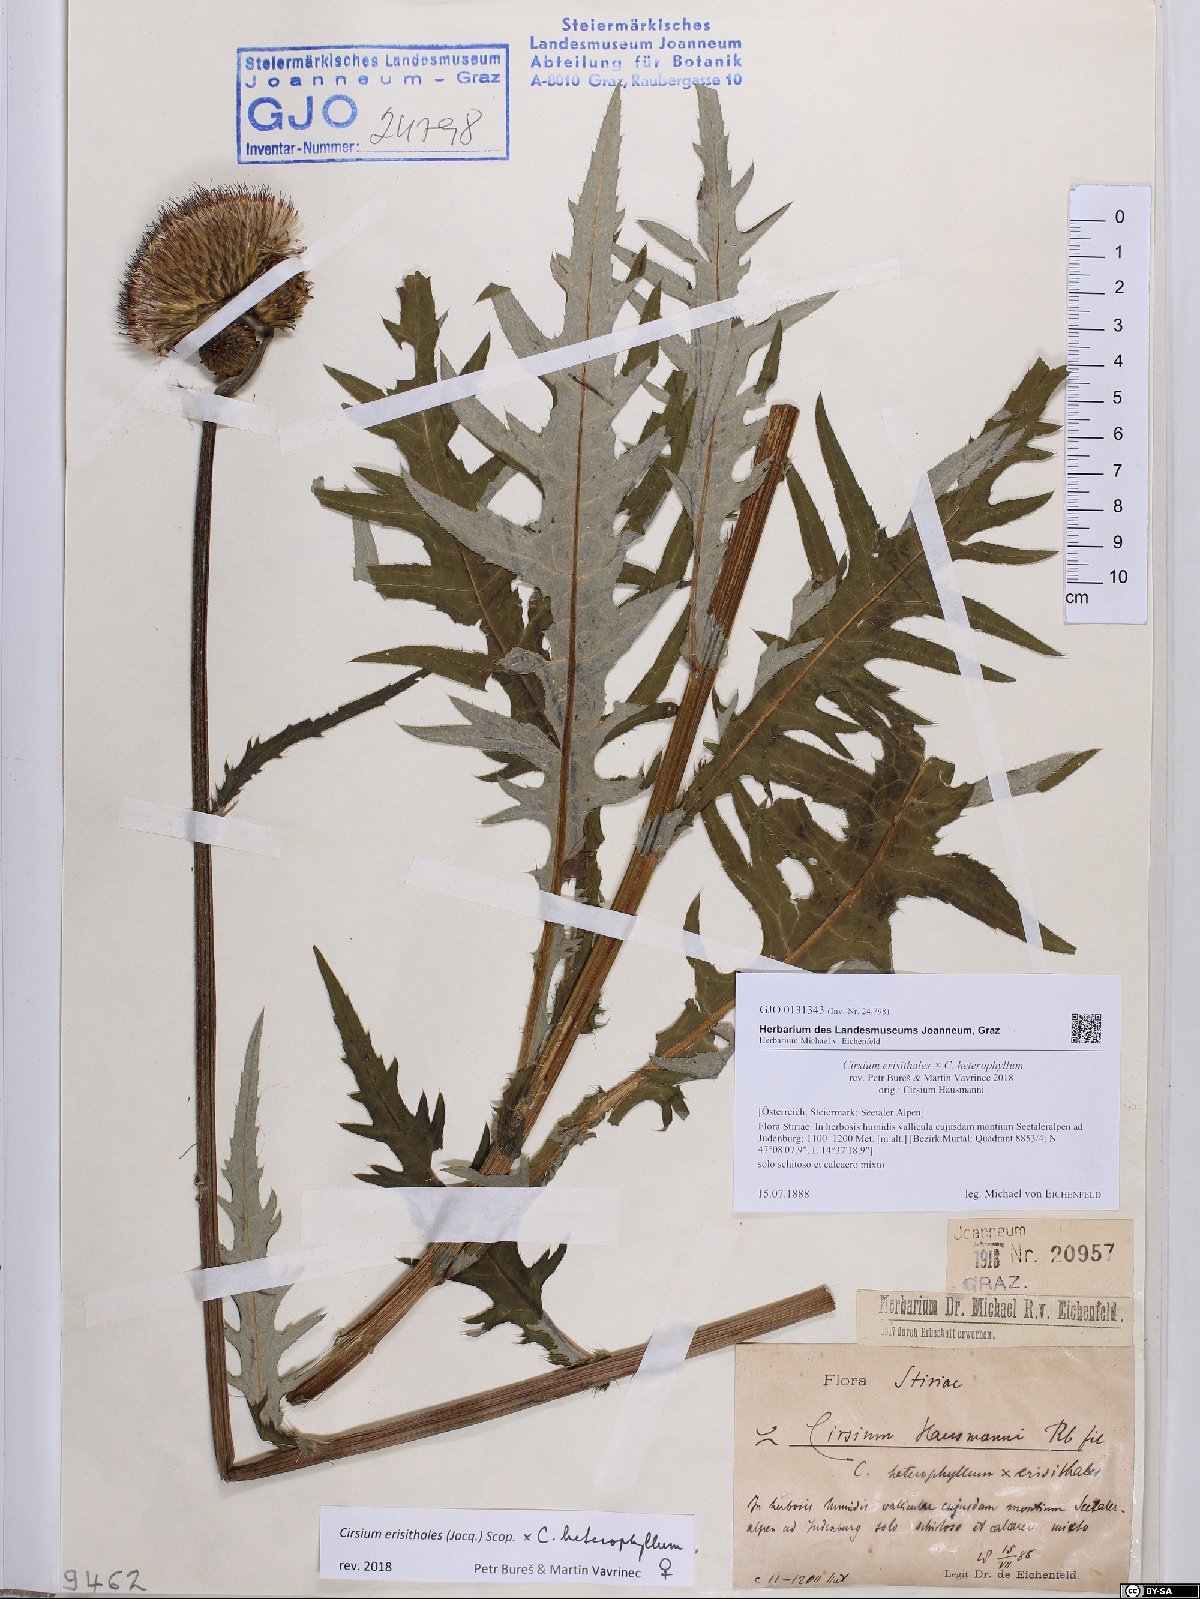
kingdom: Plantae
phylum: Tracheophyta
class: Magnoliopsida
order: Asterales
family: Asteraceae
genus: Cirsium
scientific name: Cirsium hausmannii
